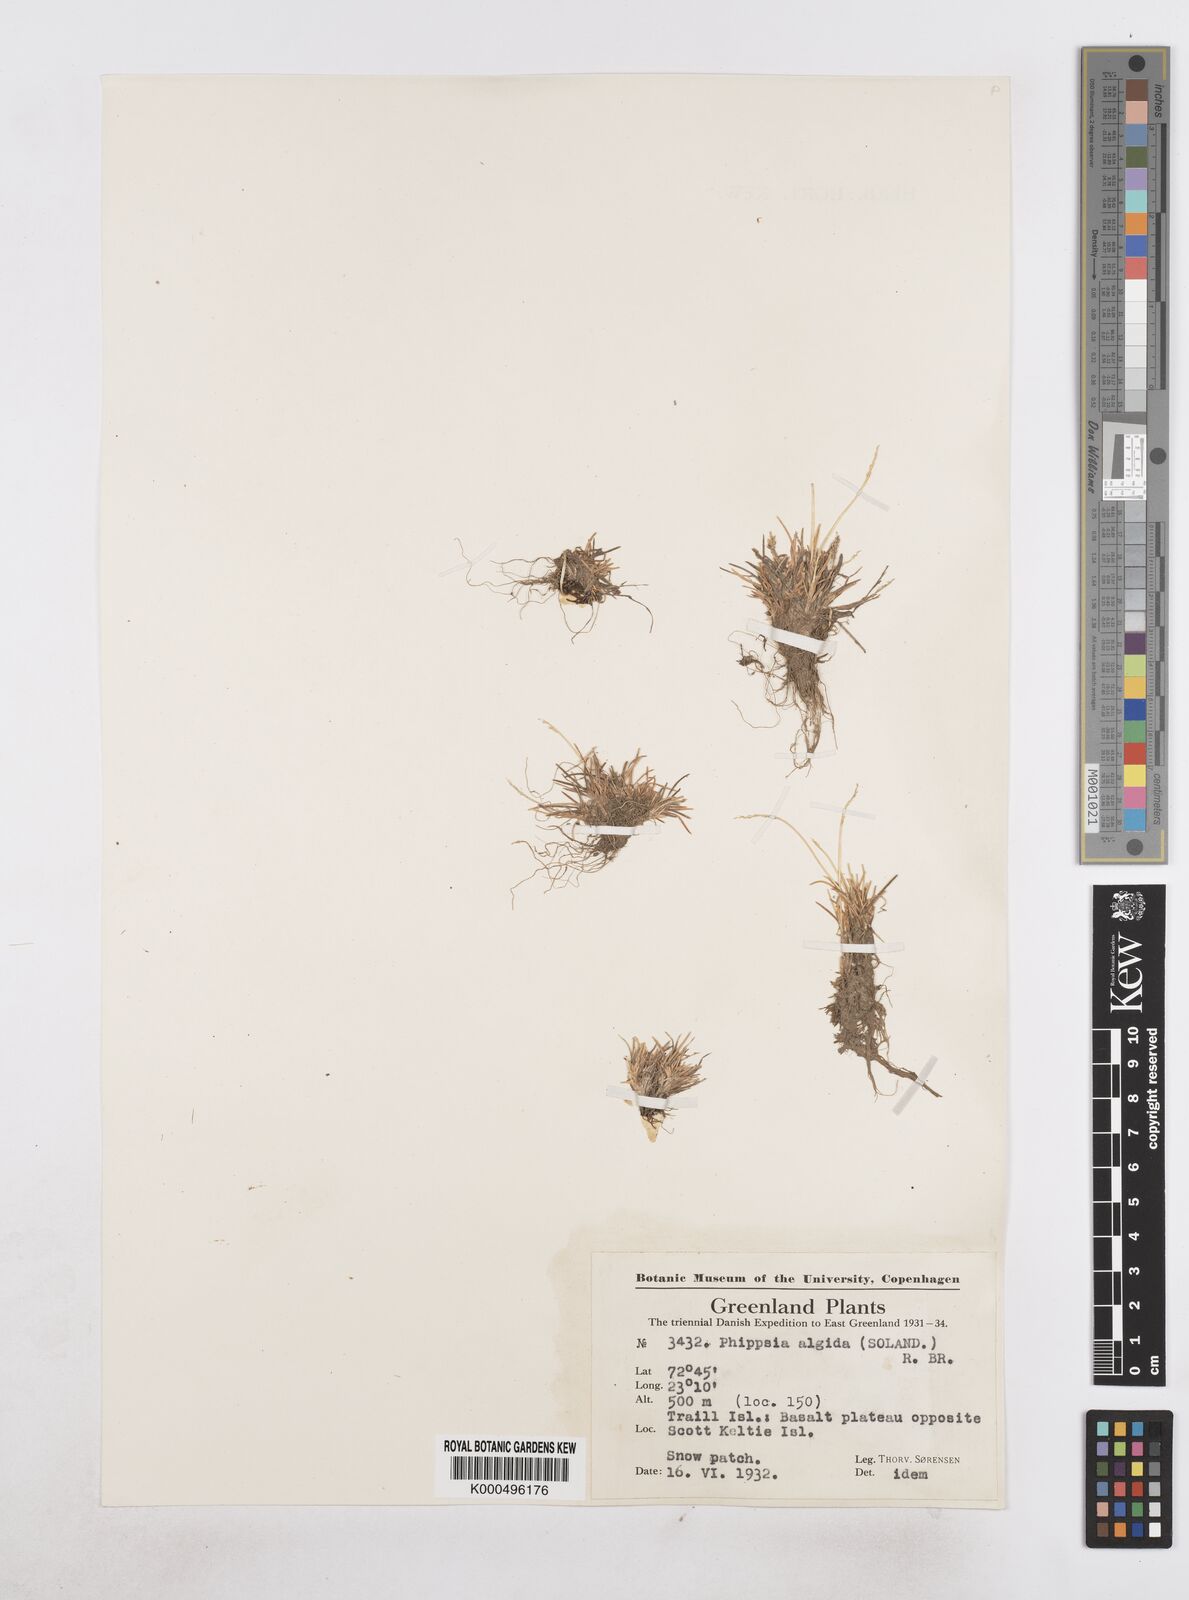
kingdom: Plantae
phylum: Tracheophyta
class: Liliopsida
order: Poales
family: Poaceae
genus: Phippsia
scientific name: Phippsia algida
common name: Ice grass
